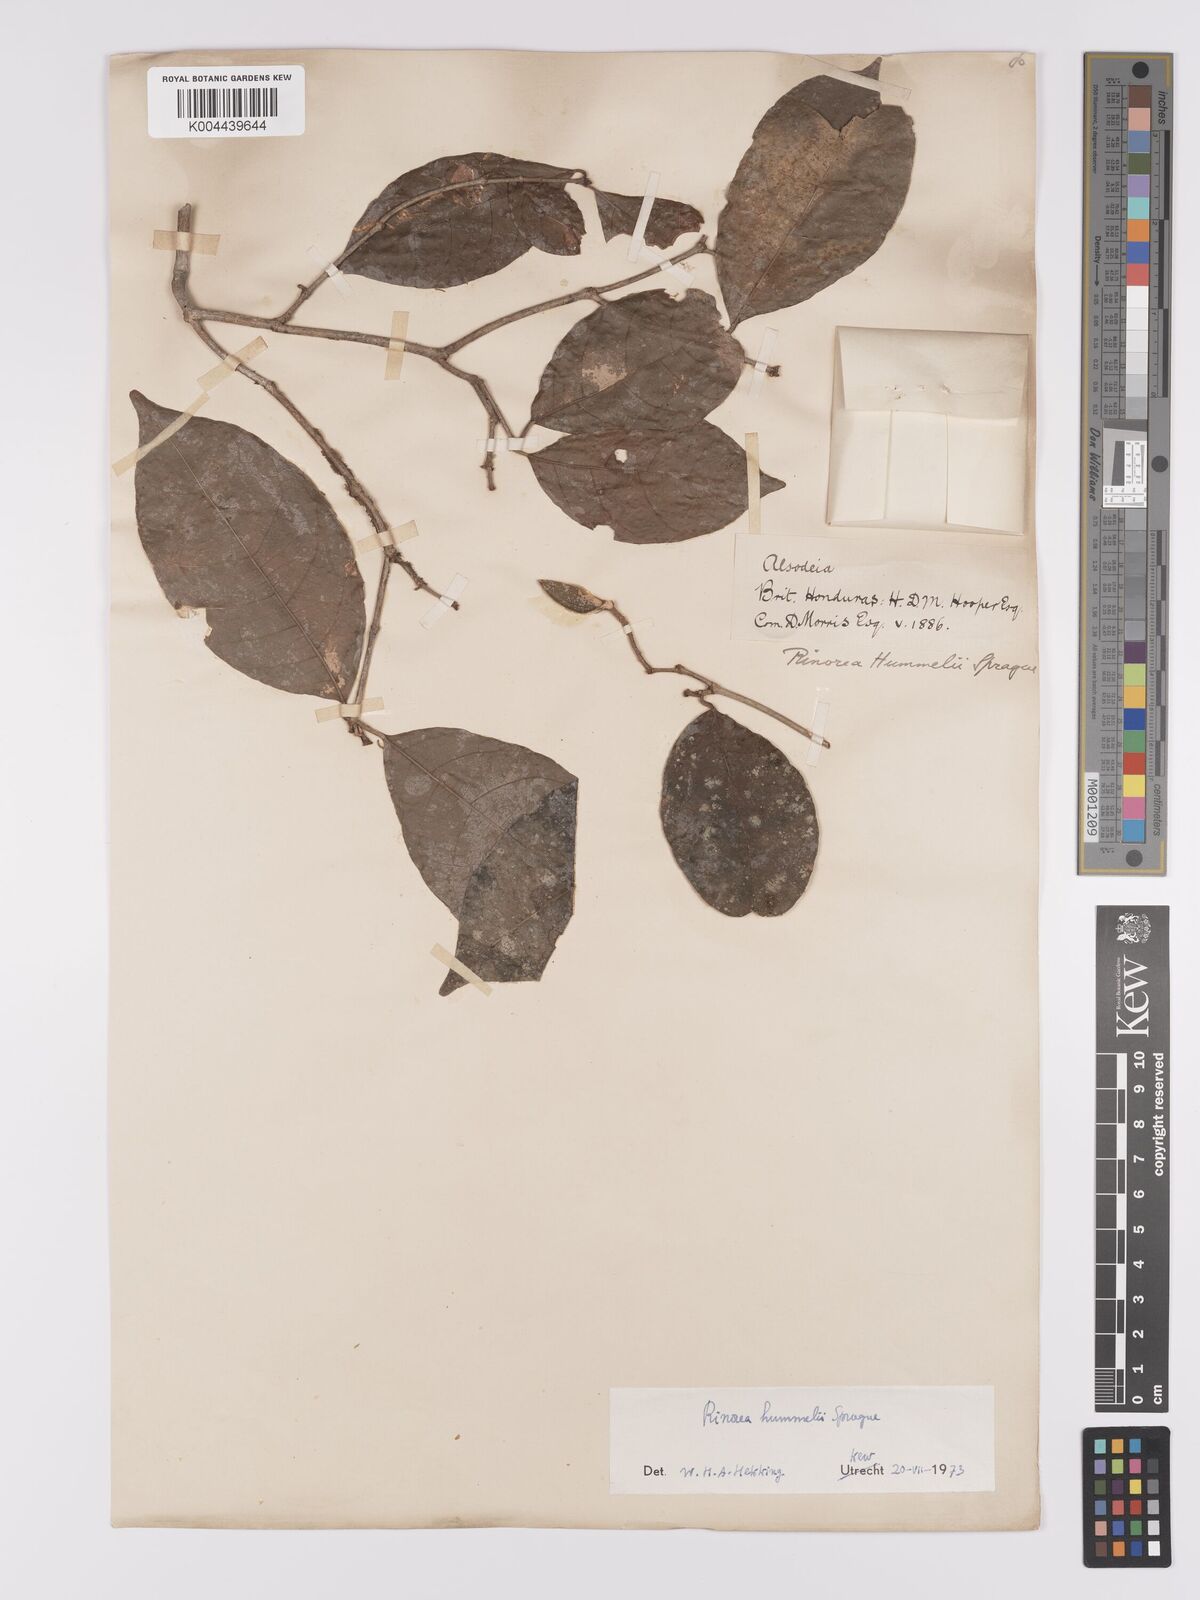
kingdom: Plantae
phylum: Tracheophyta
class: Magnoliopsida
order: Malpighiales
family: Violaceae
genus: Rinorea
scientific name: Rinorea hummelii
